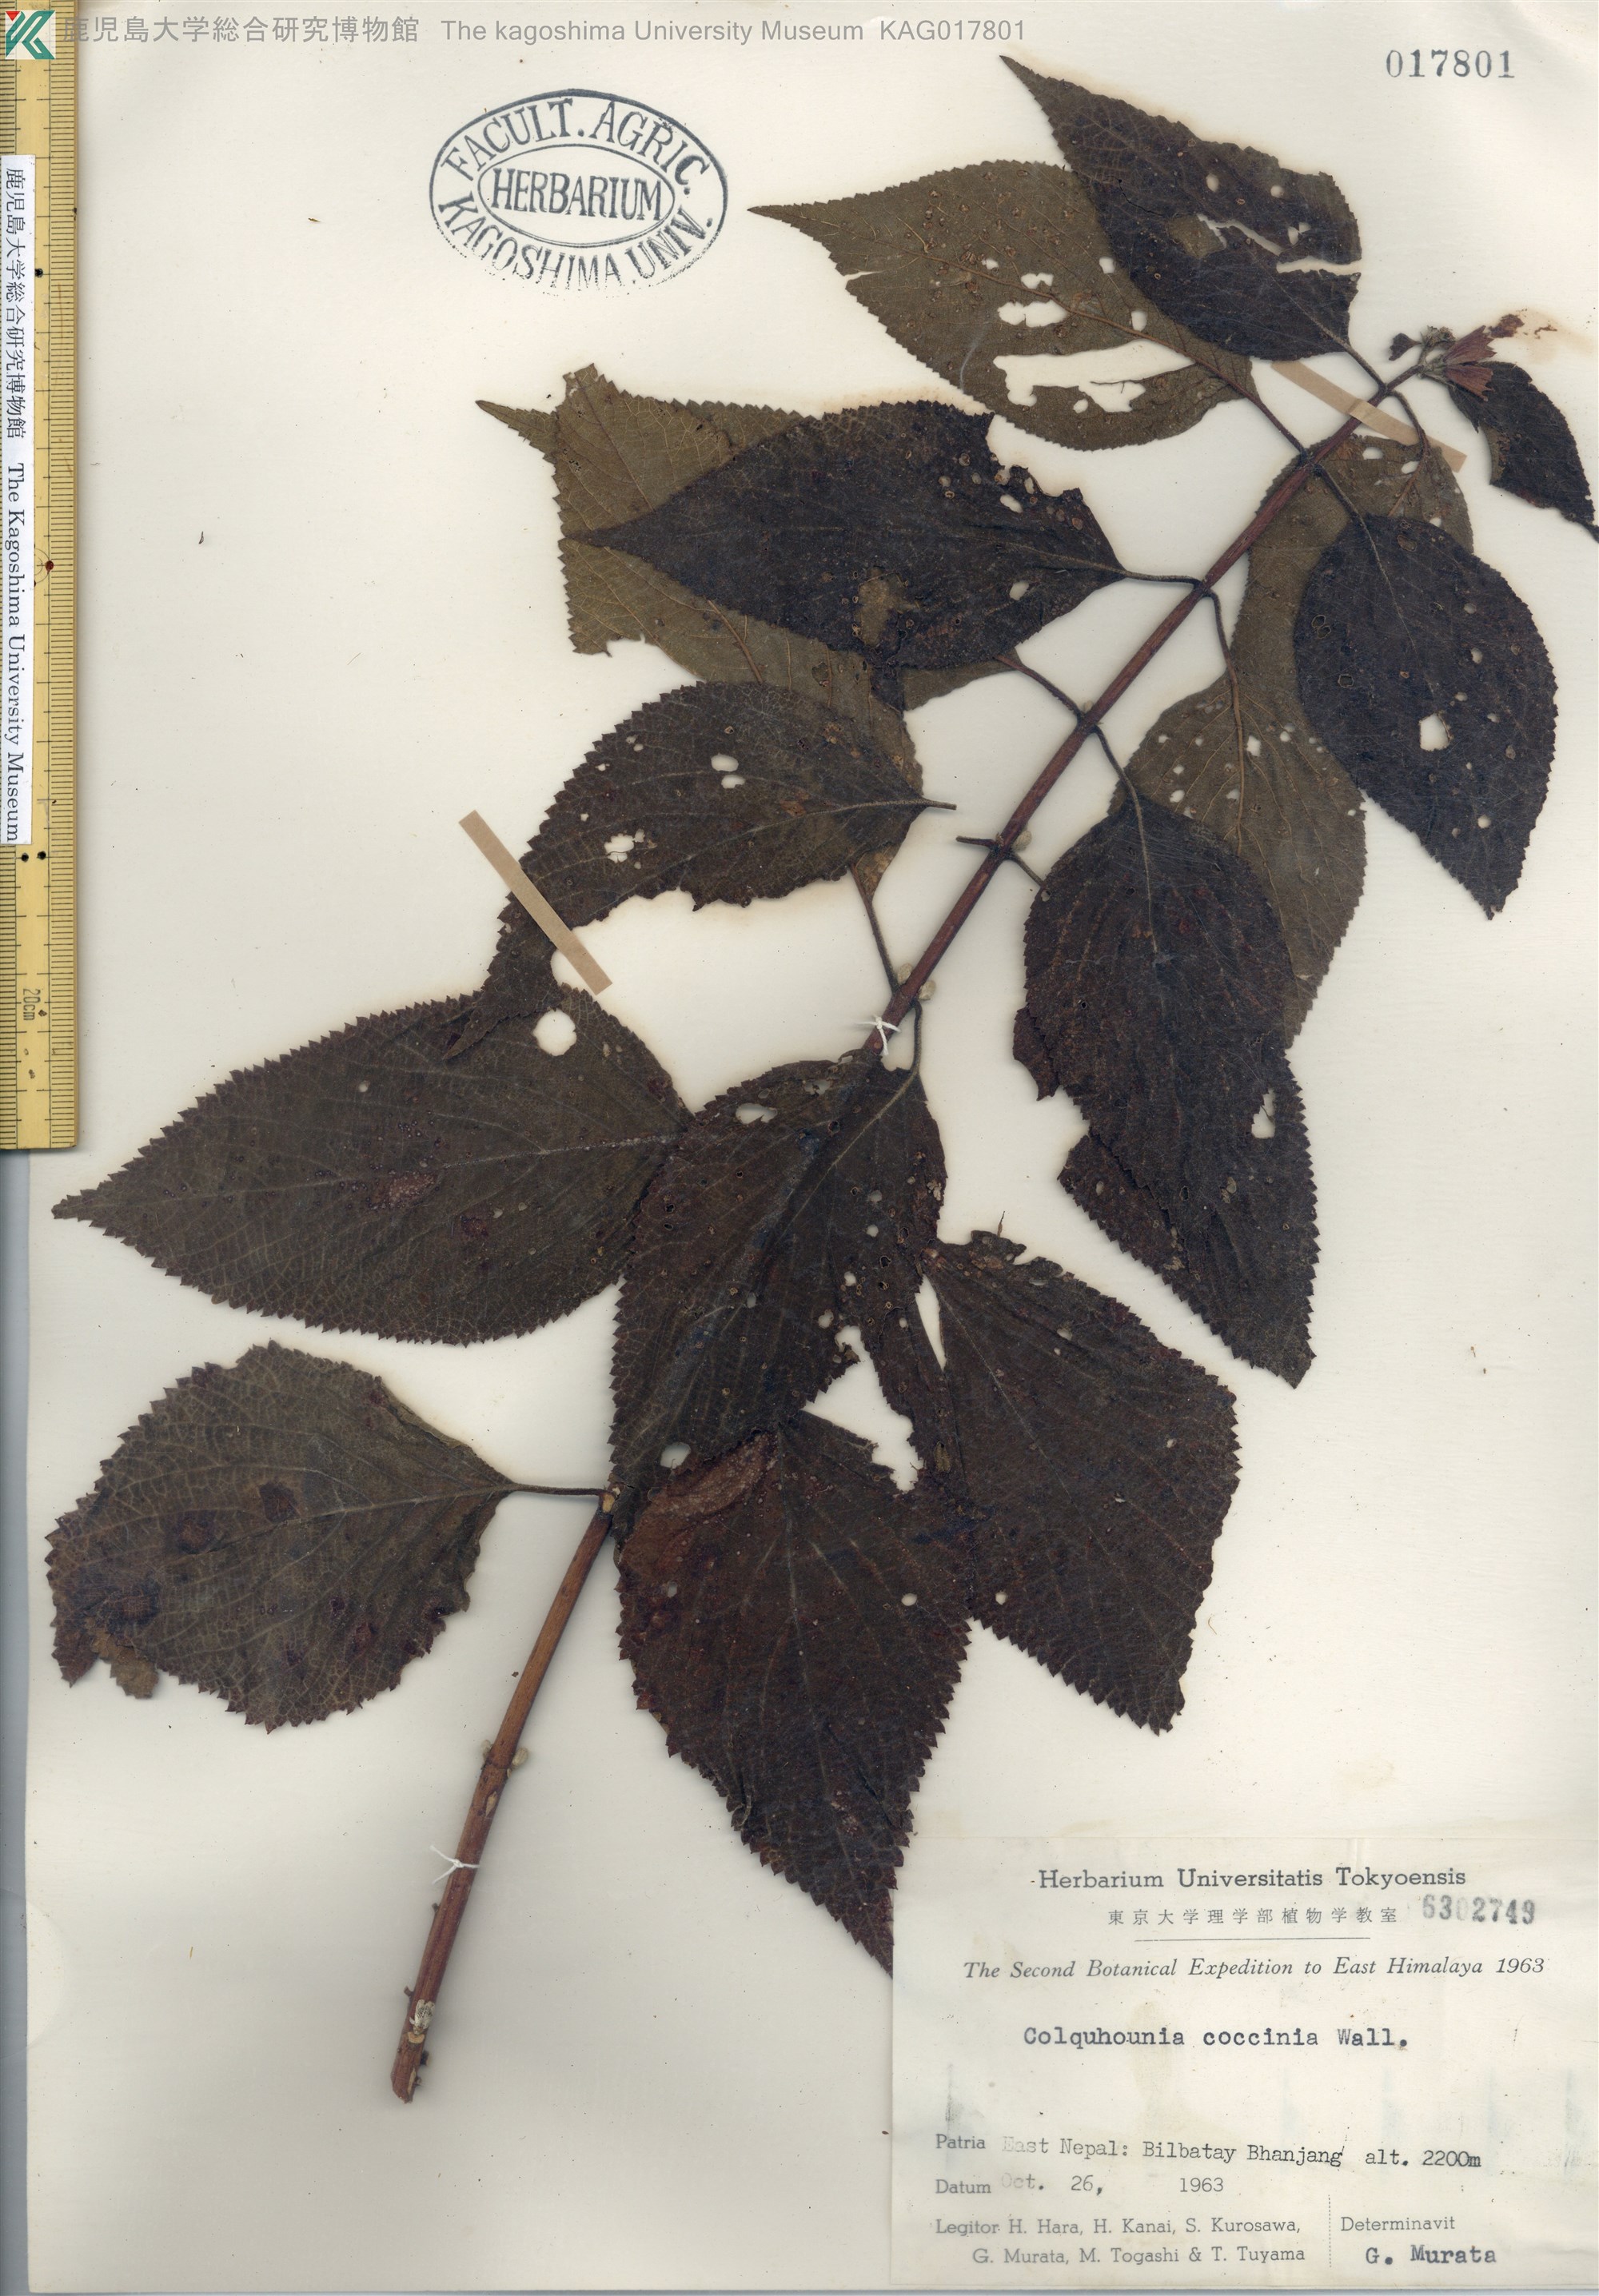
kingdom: Plantae
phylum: Tracheophyta
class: Magnoliopsida
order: Lamiales
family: Lamiaceae
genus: Colquhounia
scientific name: Colquhounia coccinea
